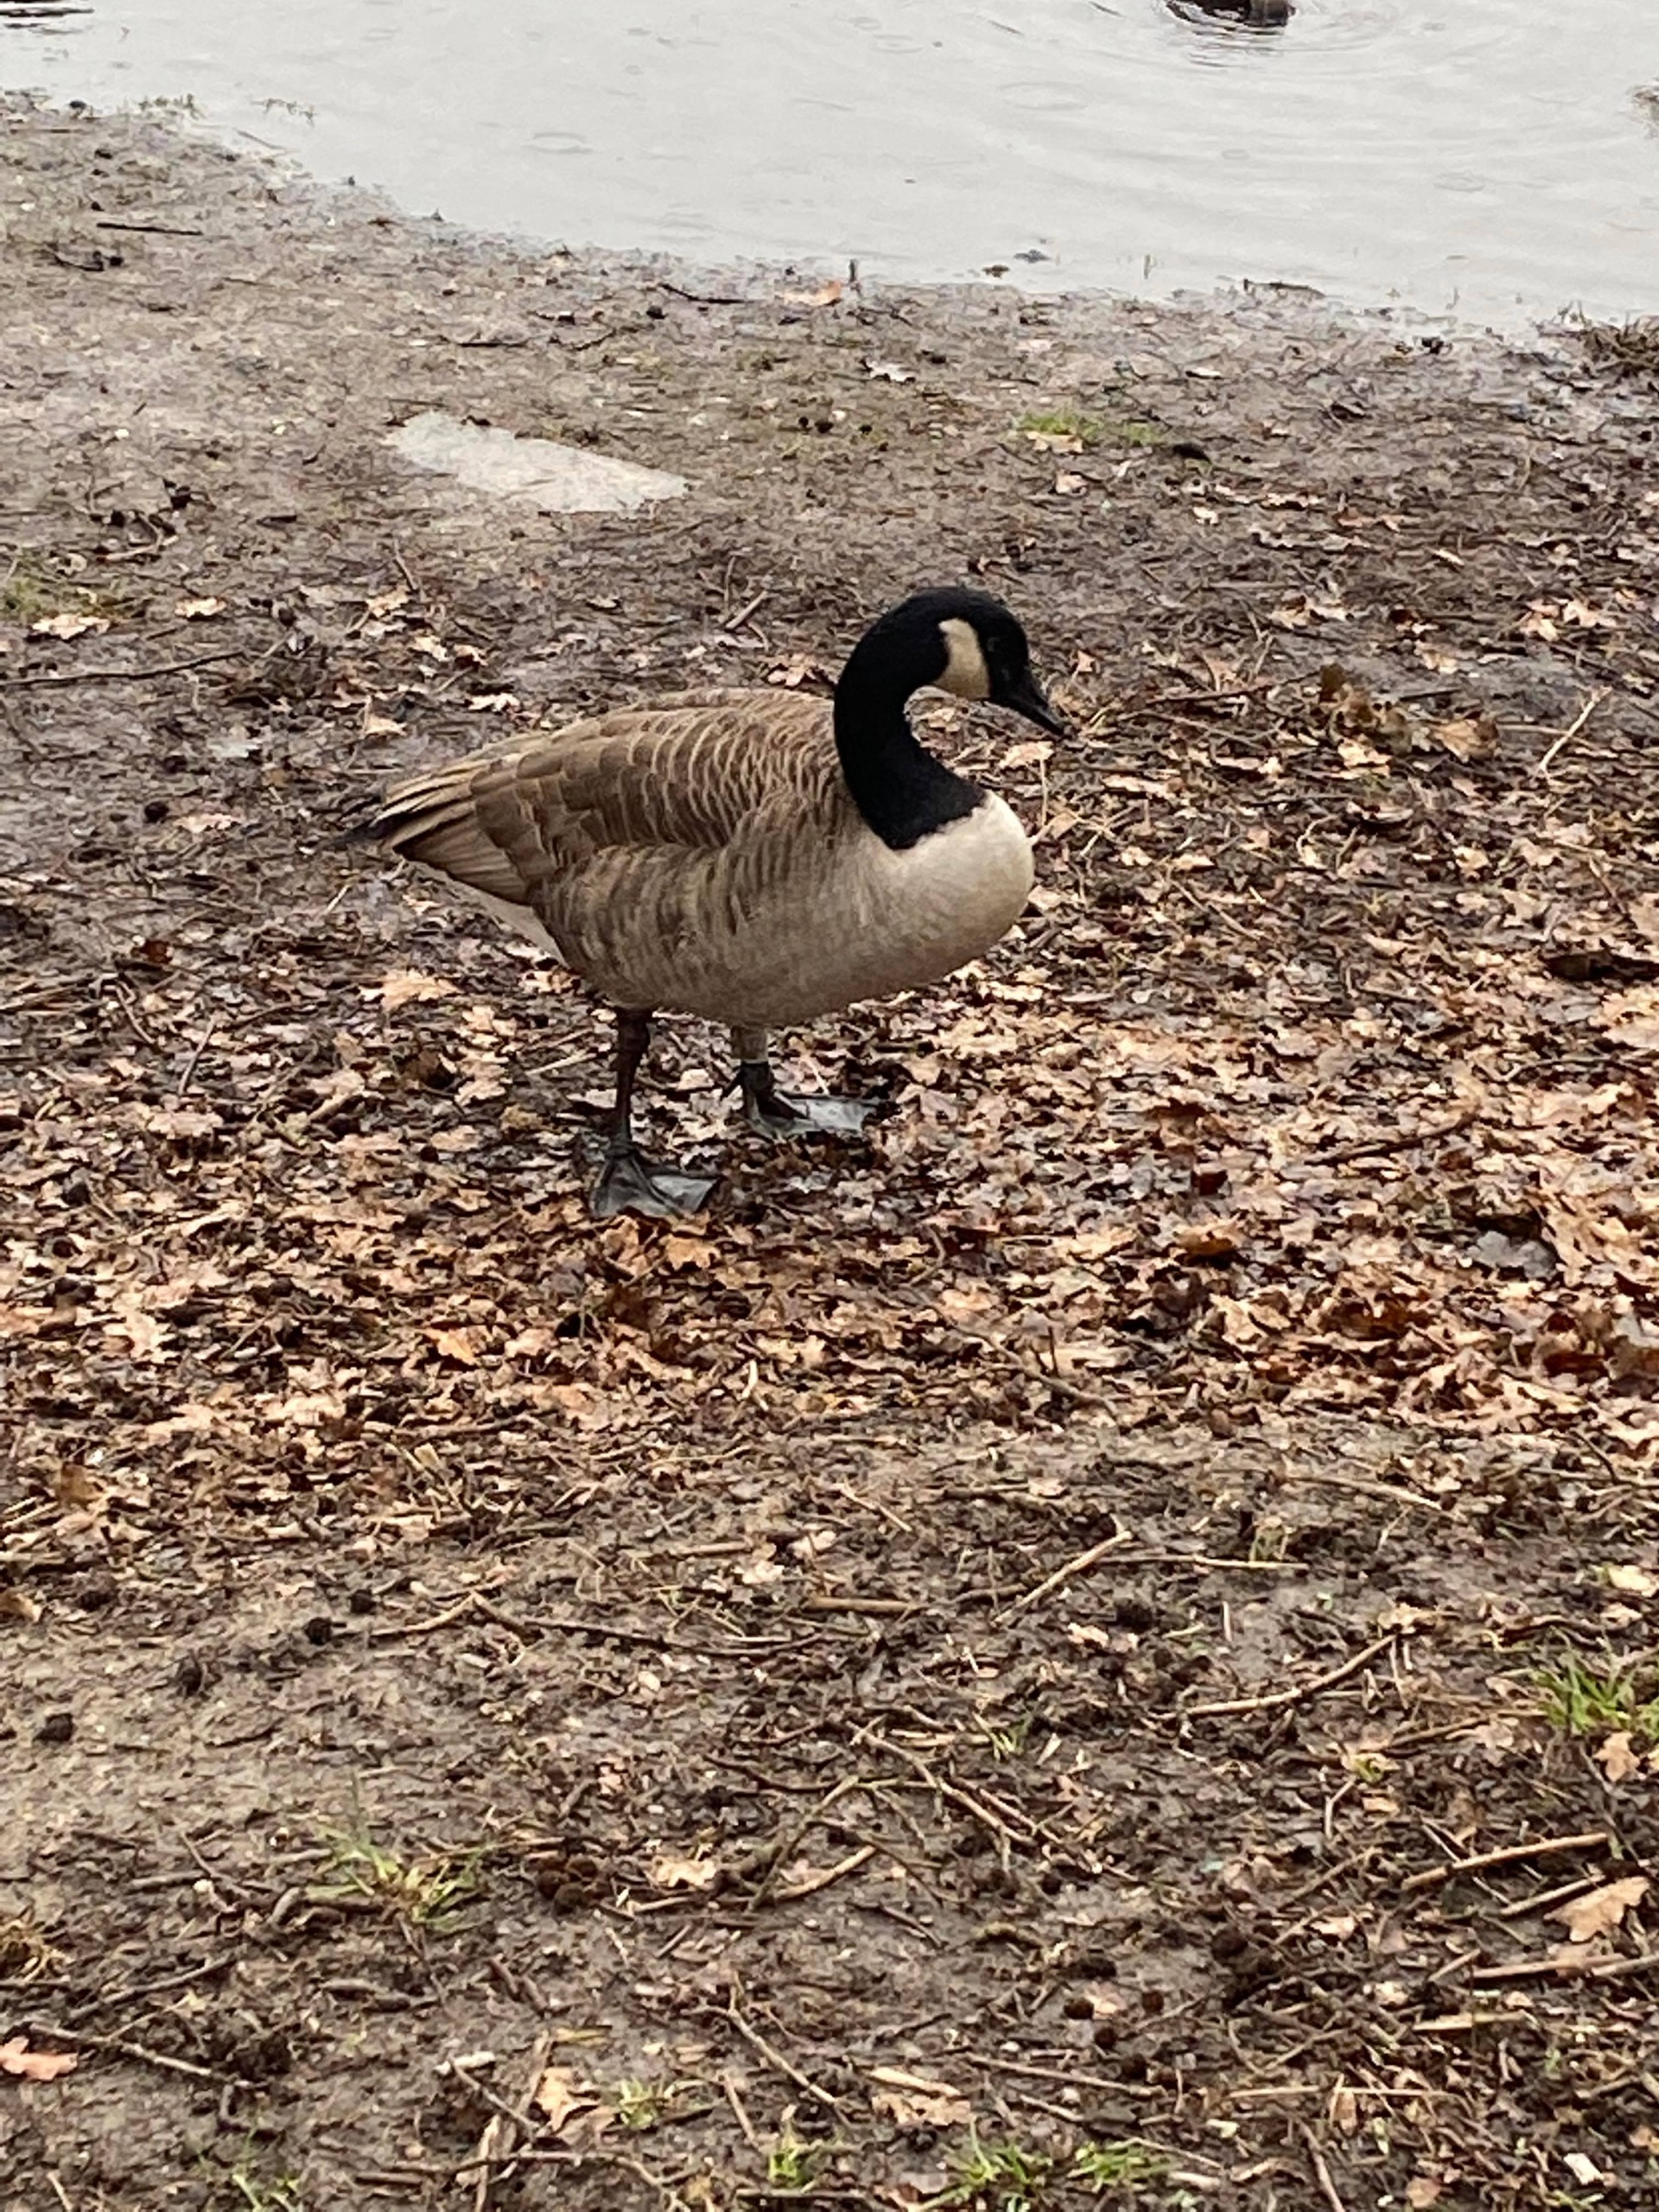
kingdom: Animalia
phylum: Chordata
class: Aves
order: Anseriformes
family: Anatidae
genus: Branta
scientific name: Branta canadensis
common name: Canadagås
